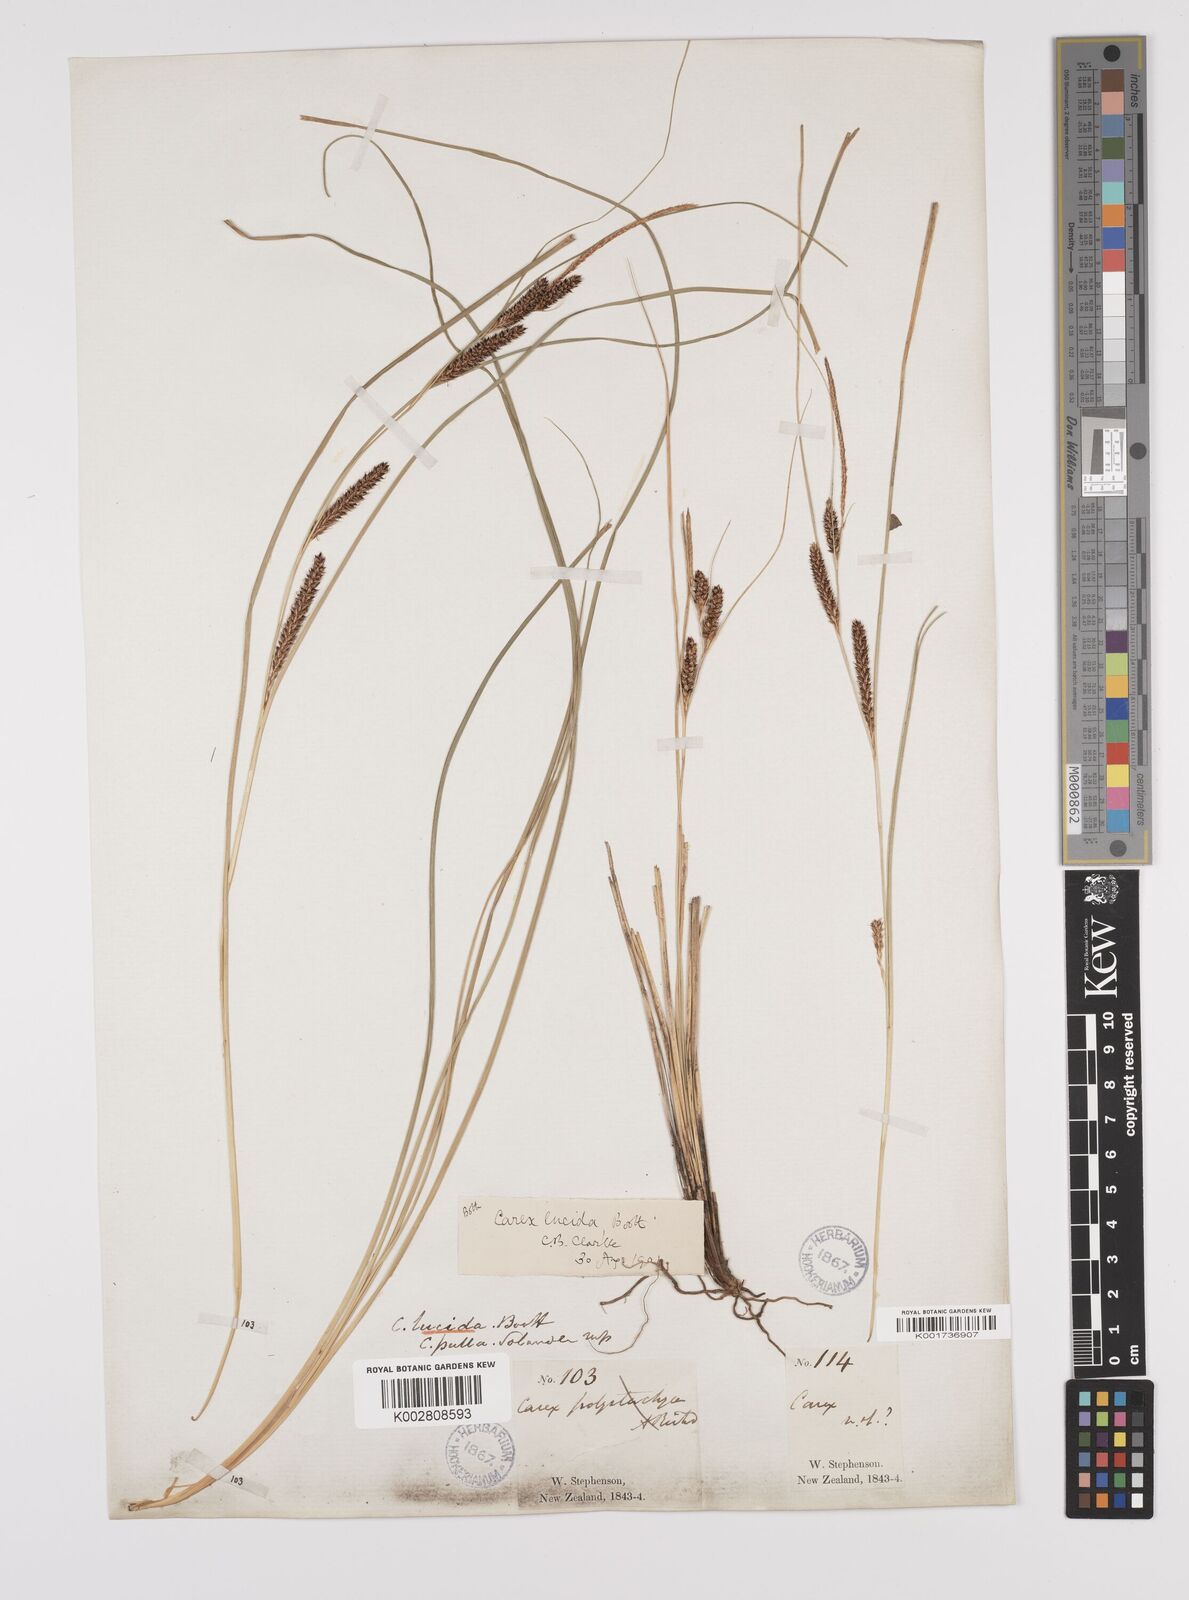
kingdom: Plantae
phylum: Tracheophyta
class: Liliopsida
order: Poales
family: Cyperaceae
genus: Carex
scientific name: Carex flagellifera
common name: Glen murray tussock
